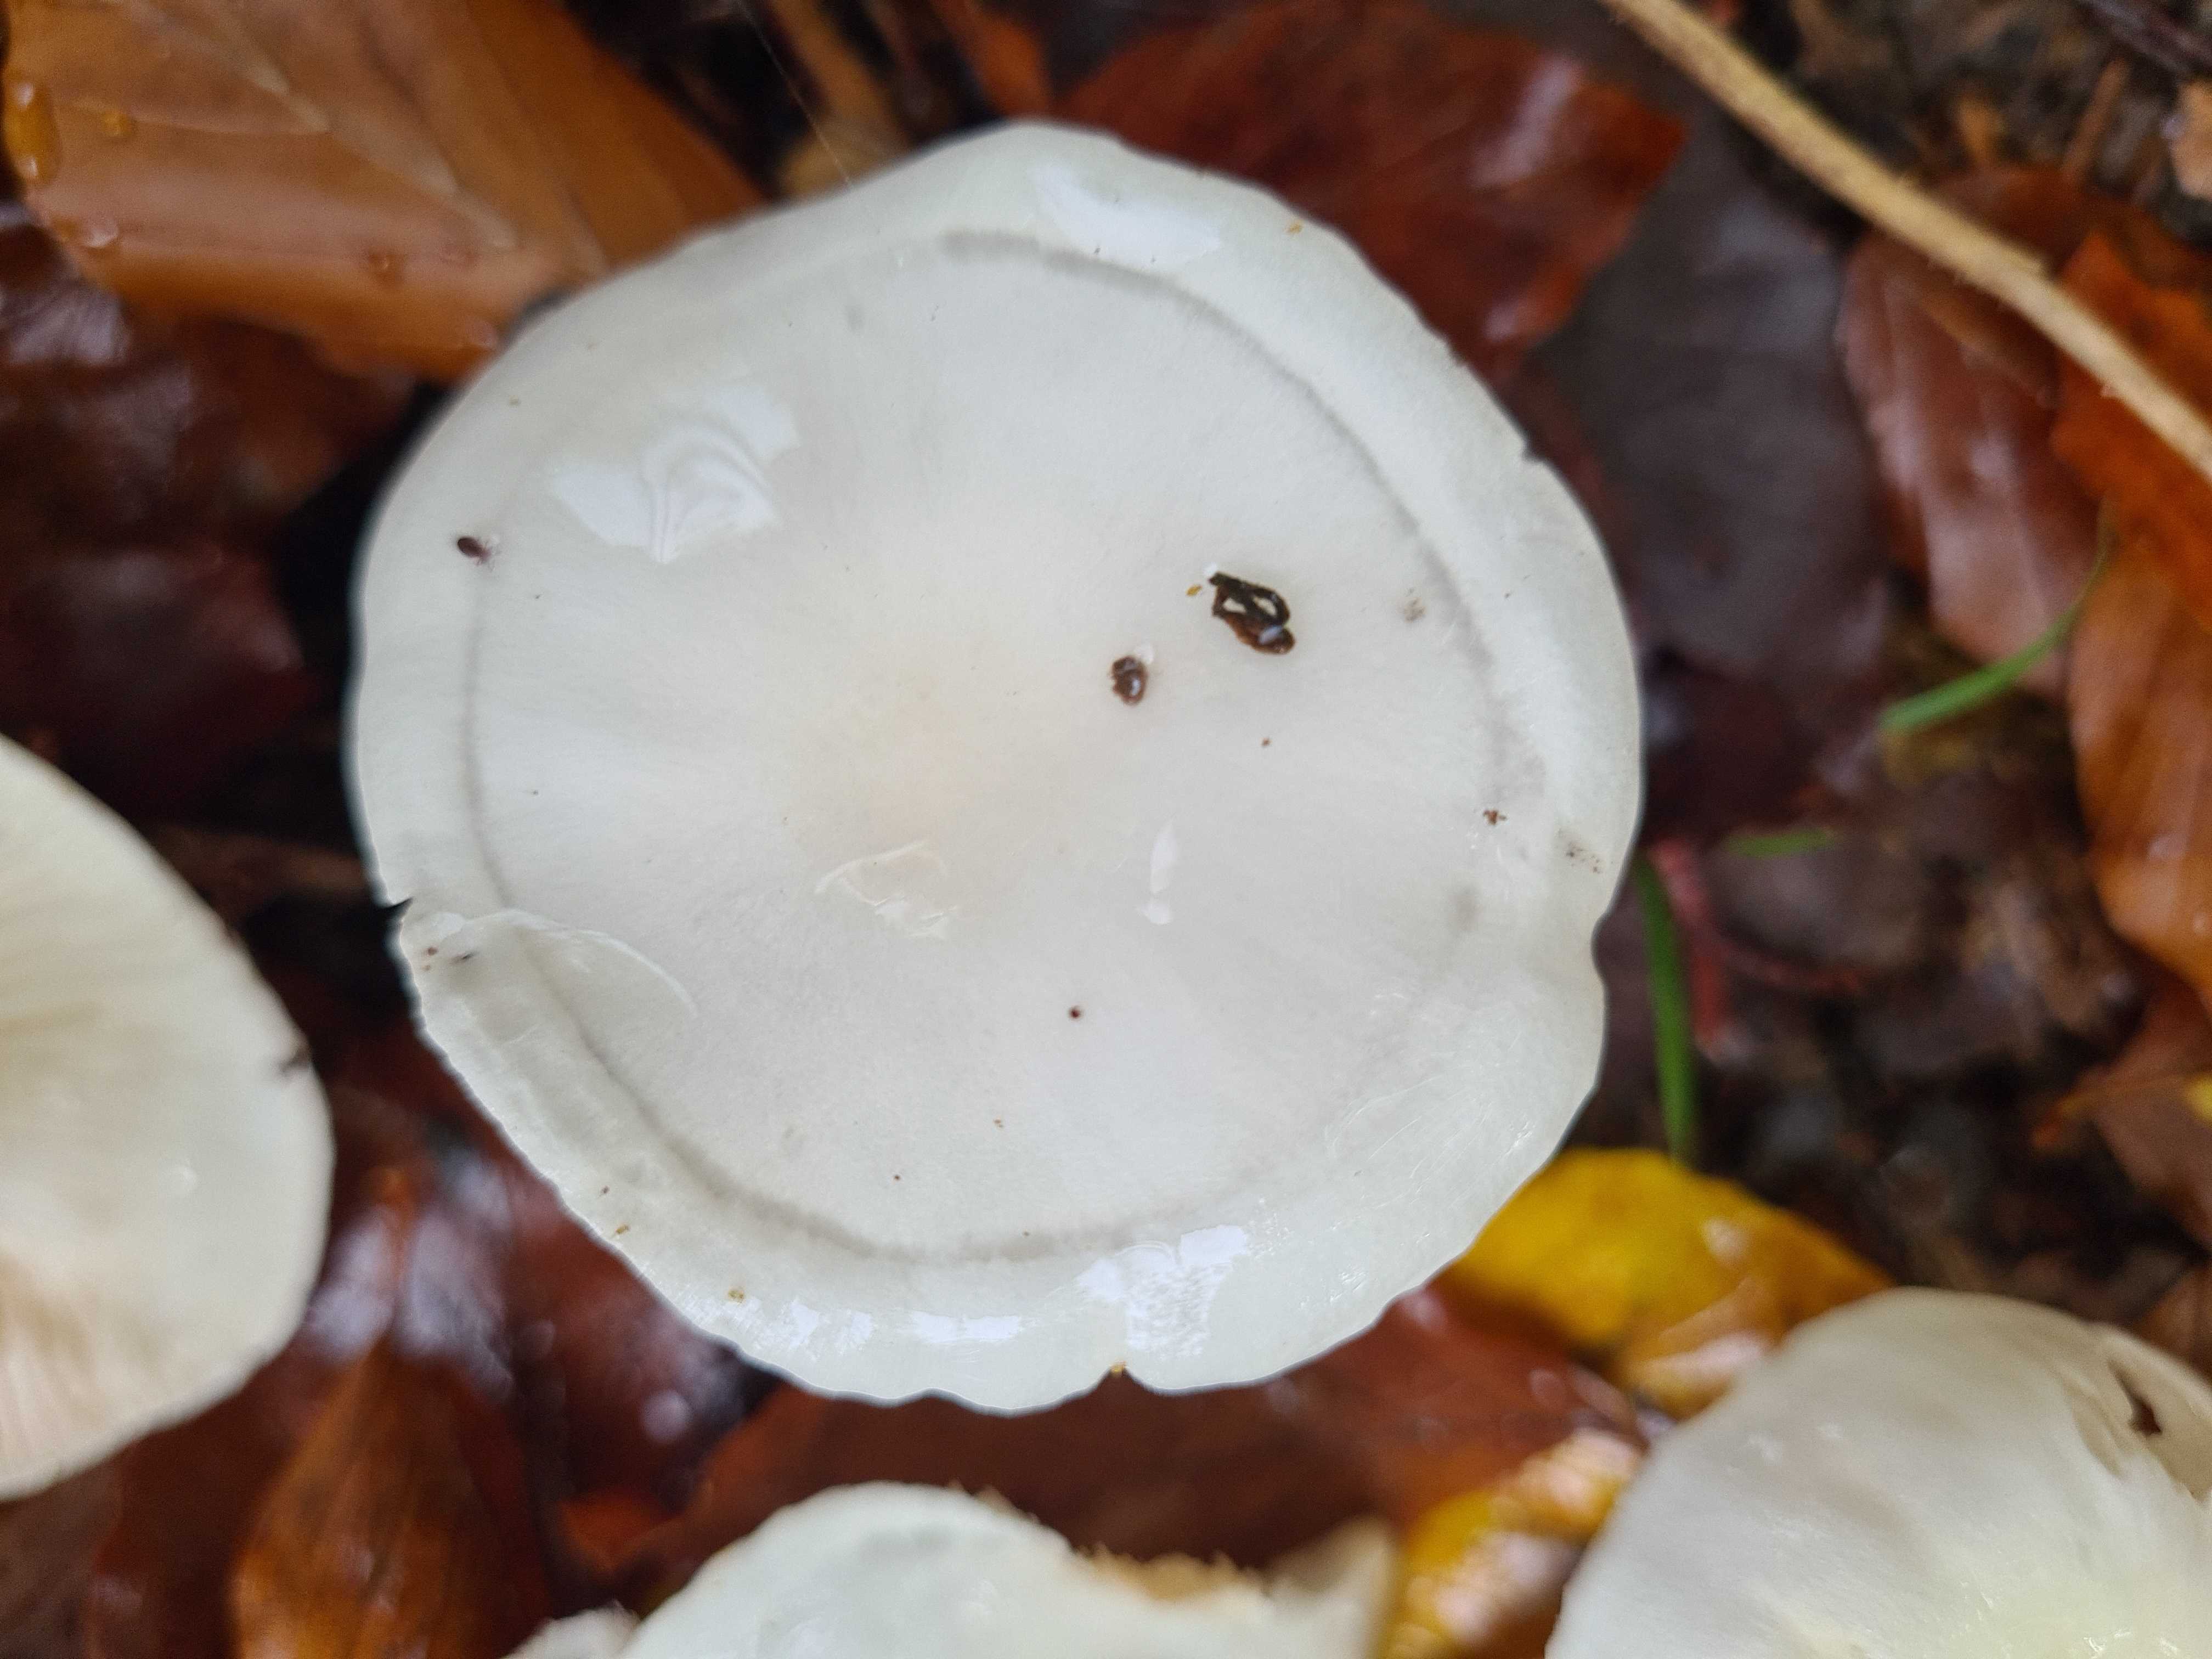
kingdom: Fungi
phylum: Basidiomycota
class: Agaricomycetes
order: Agaricales
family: Hygrophoraceae
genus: Hygrophorus
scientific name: Hygrophorus eburneus
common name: elfenbens-sneglehat
